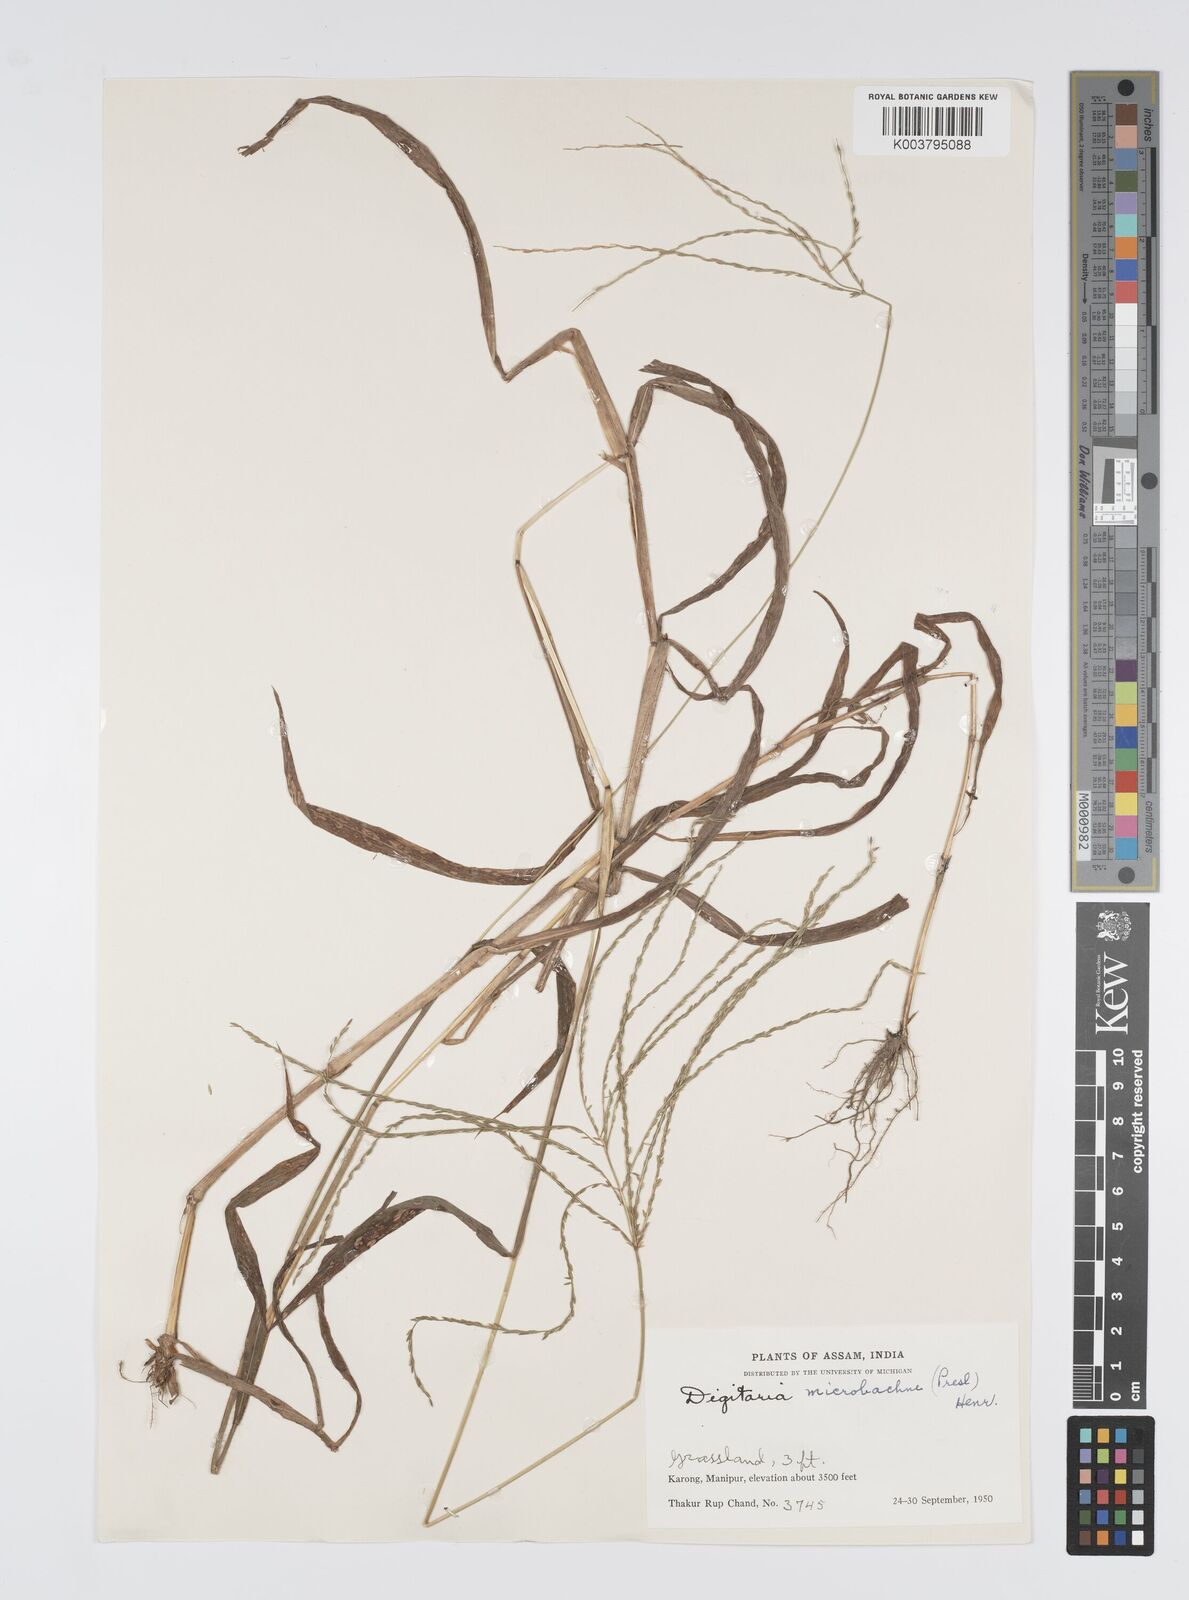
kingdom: Plantae
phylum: Tracheophyta
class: Liliopsida
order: Poales
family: Poaceae
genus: Digitaria
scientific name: Digitaria setigera
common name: East indian crabgrass
